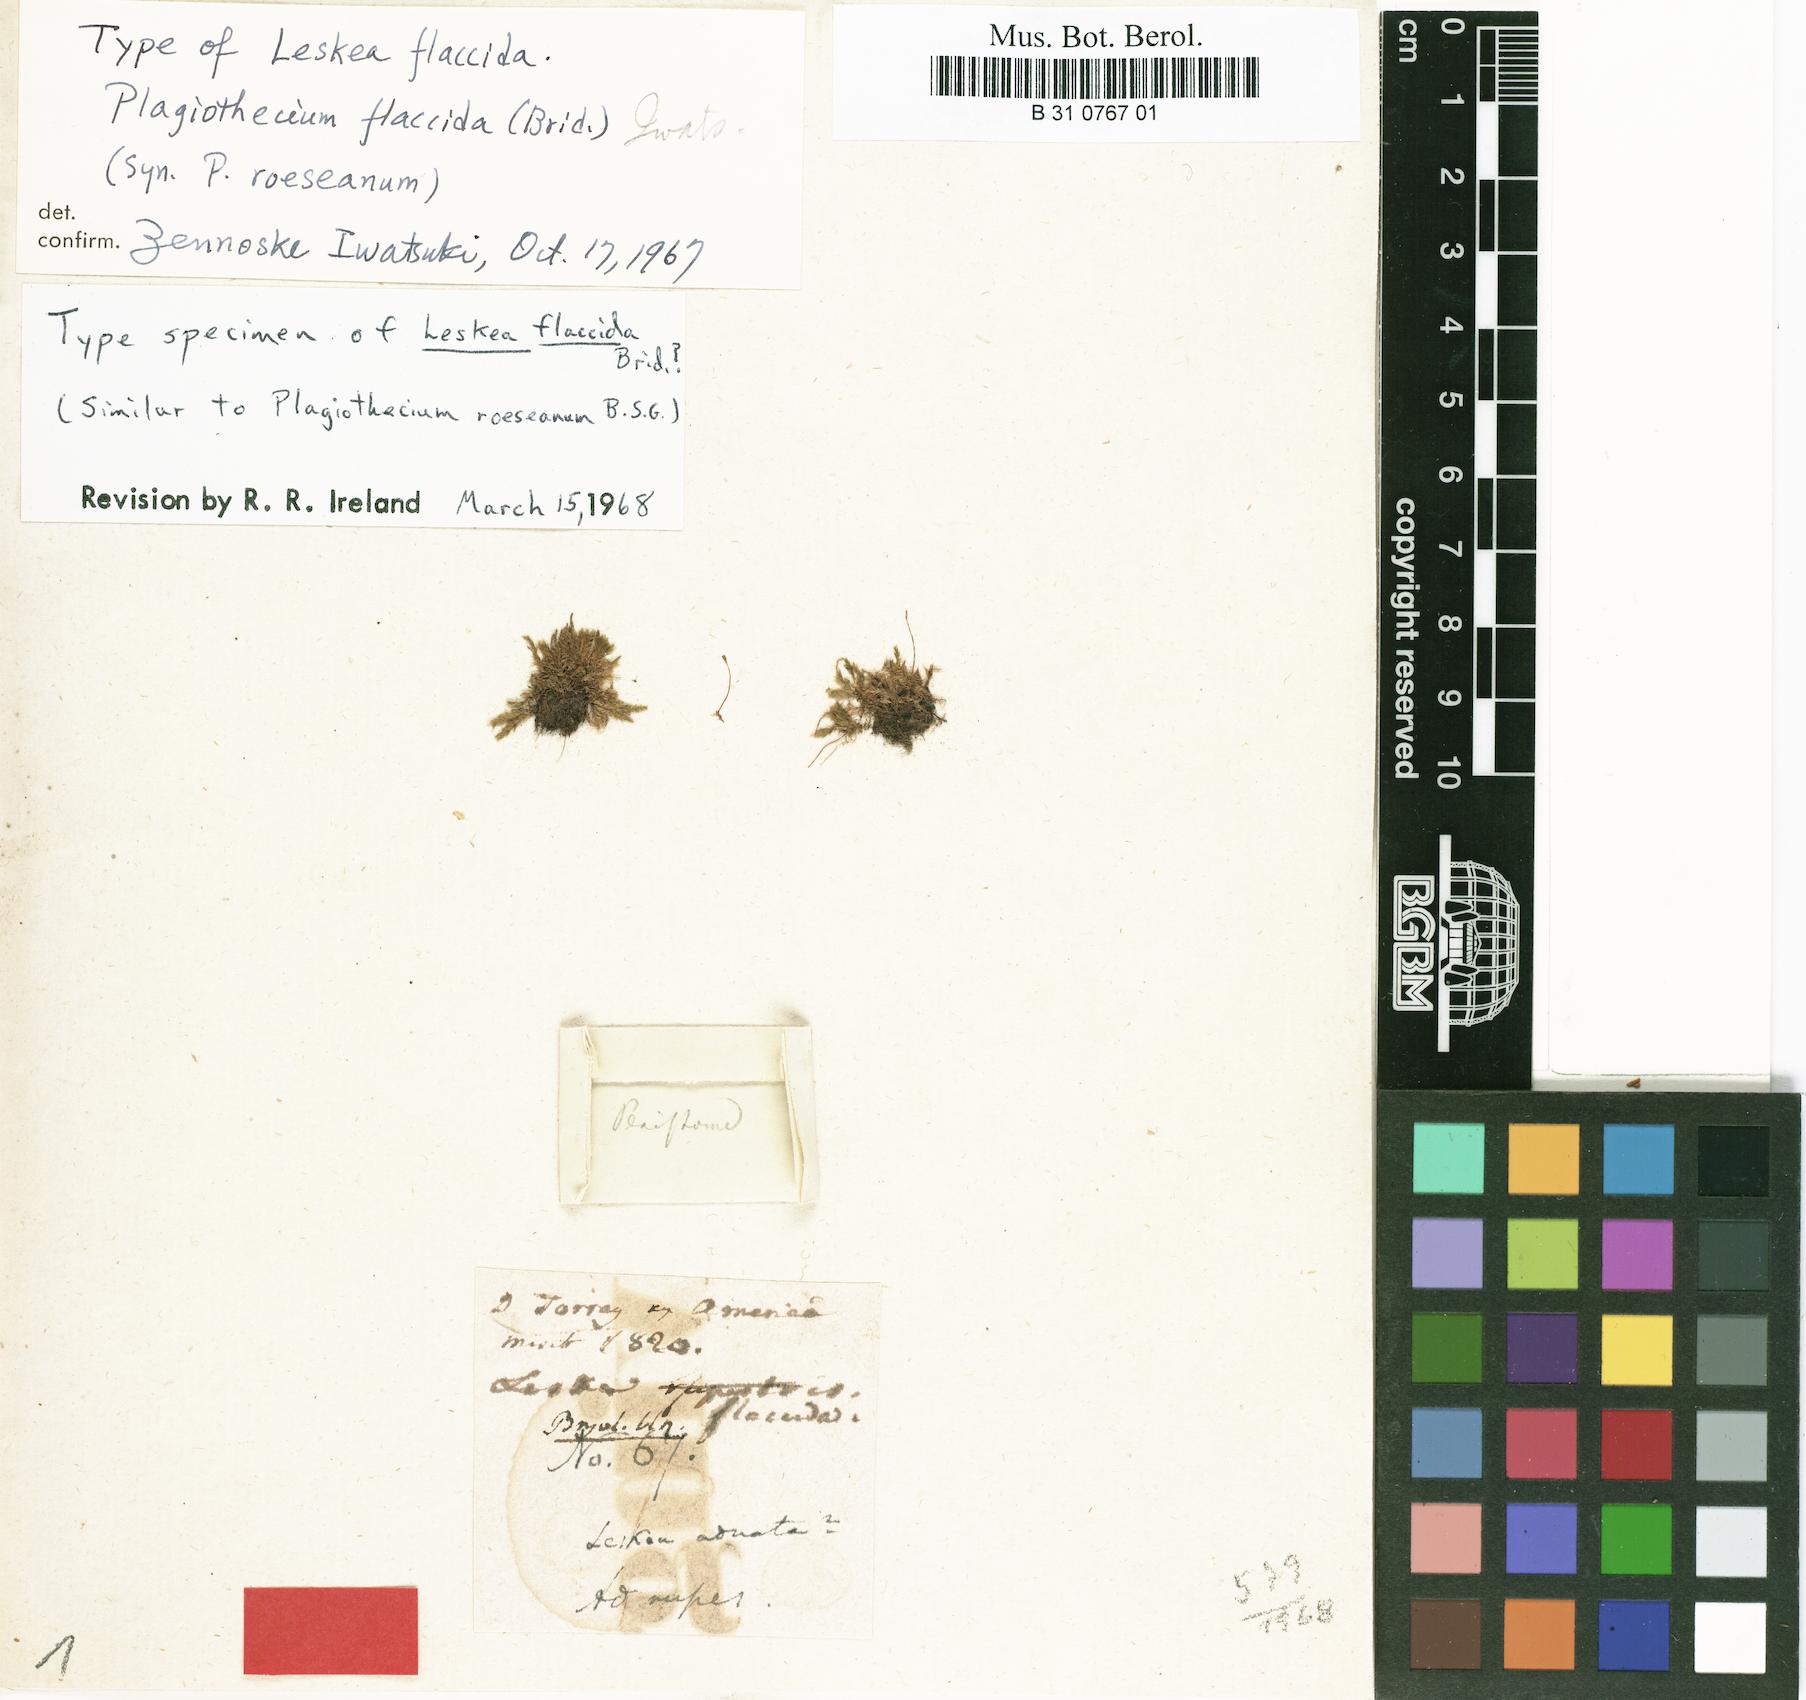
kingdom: Plantae
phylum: Bryophyta
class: Bryopsida
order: Hypnales
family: Plagiotheciaceae
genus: Plagiothecium
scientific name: Plagiothecium flaccidum
